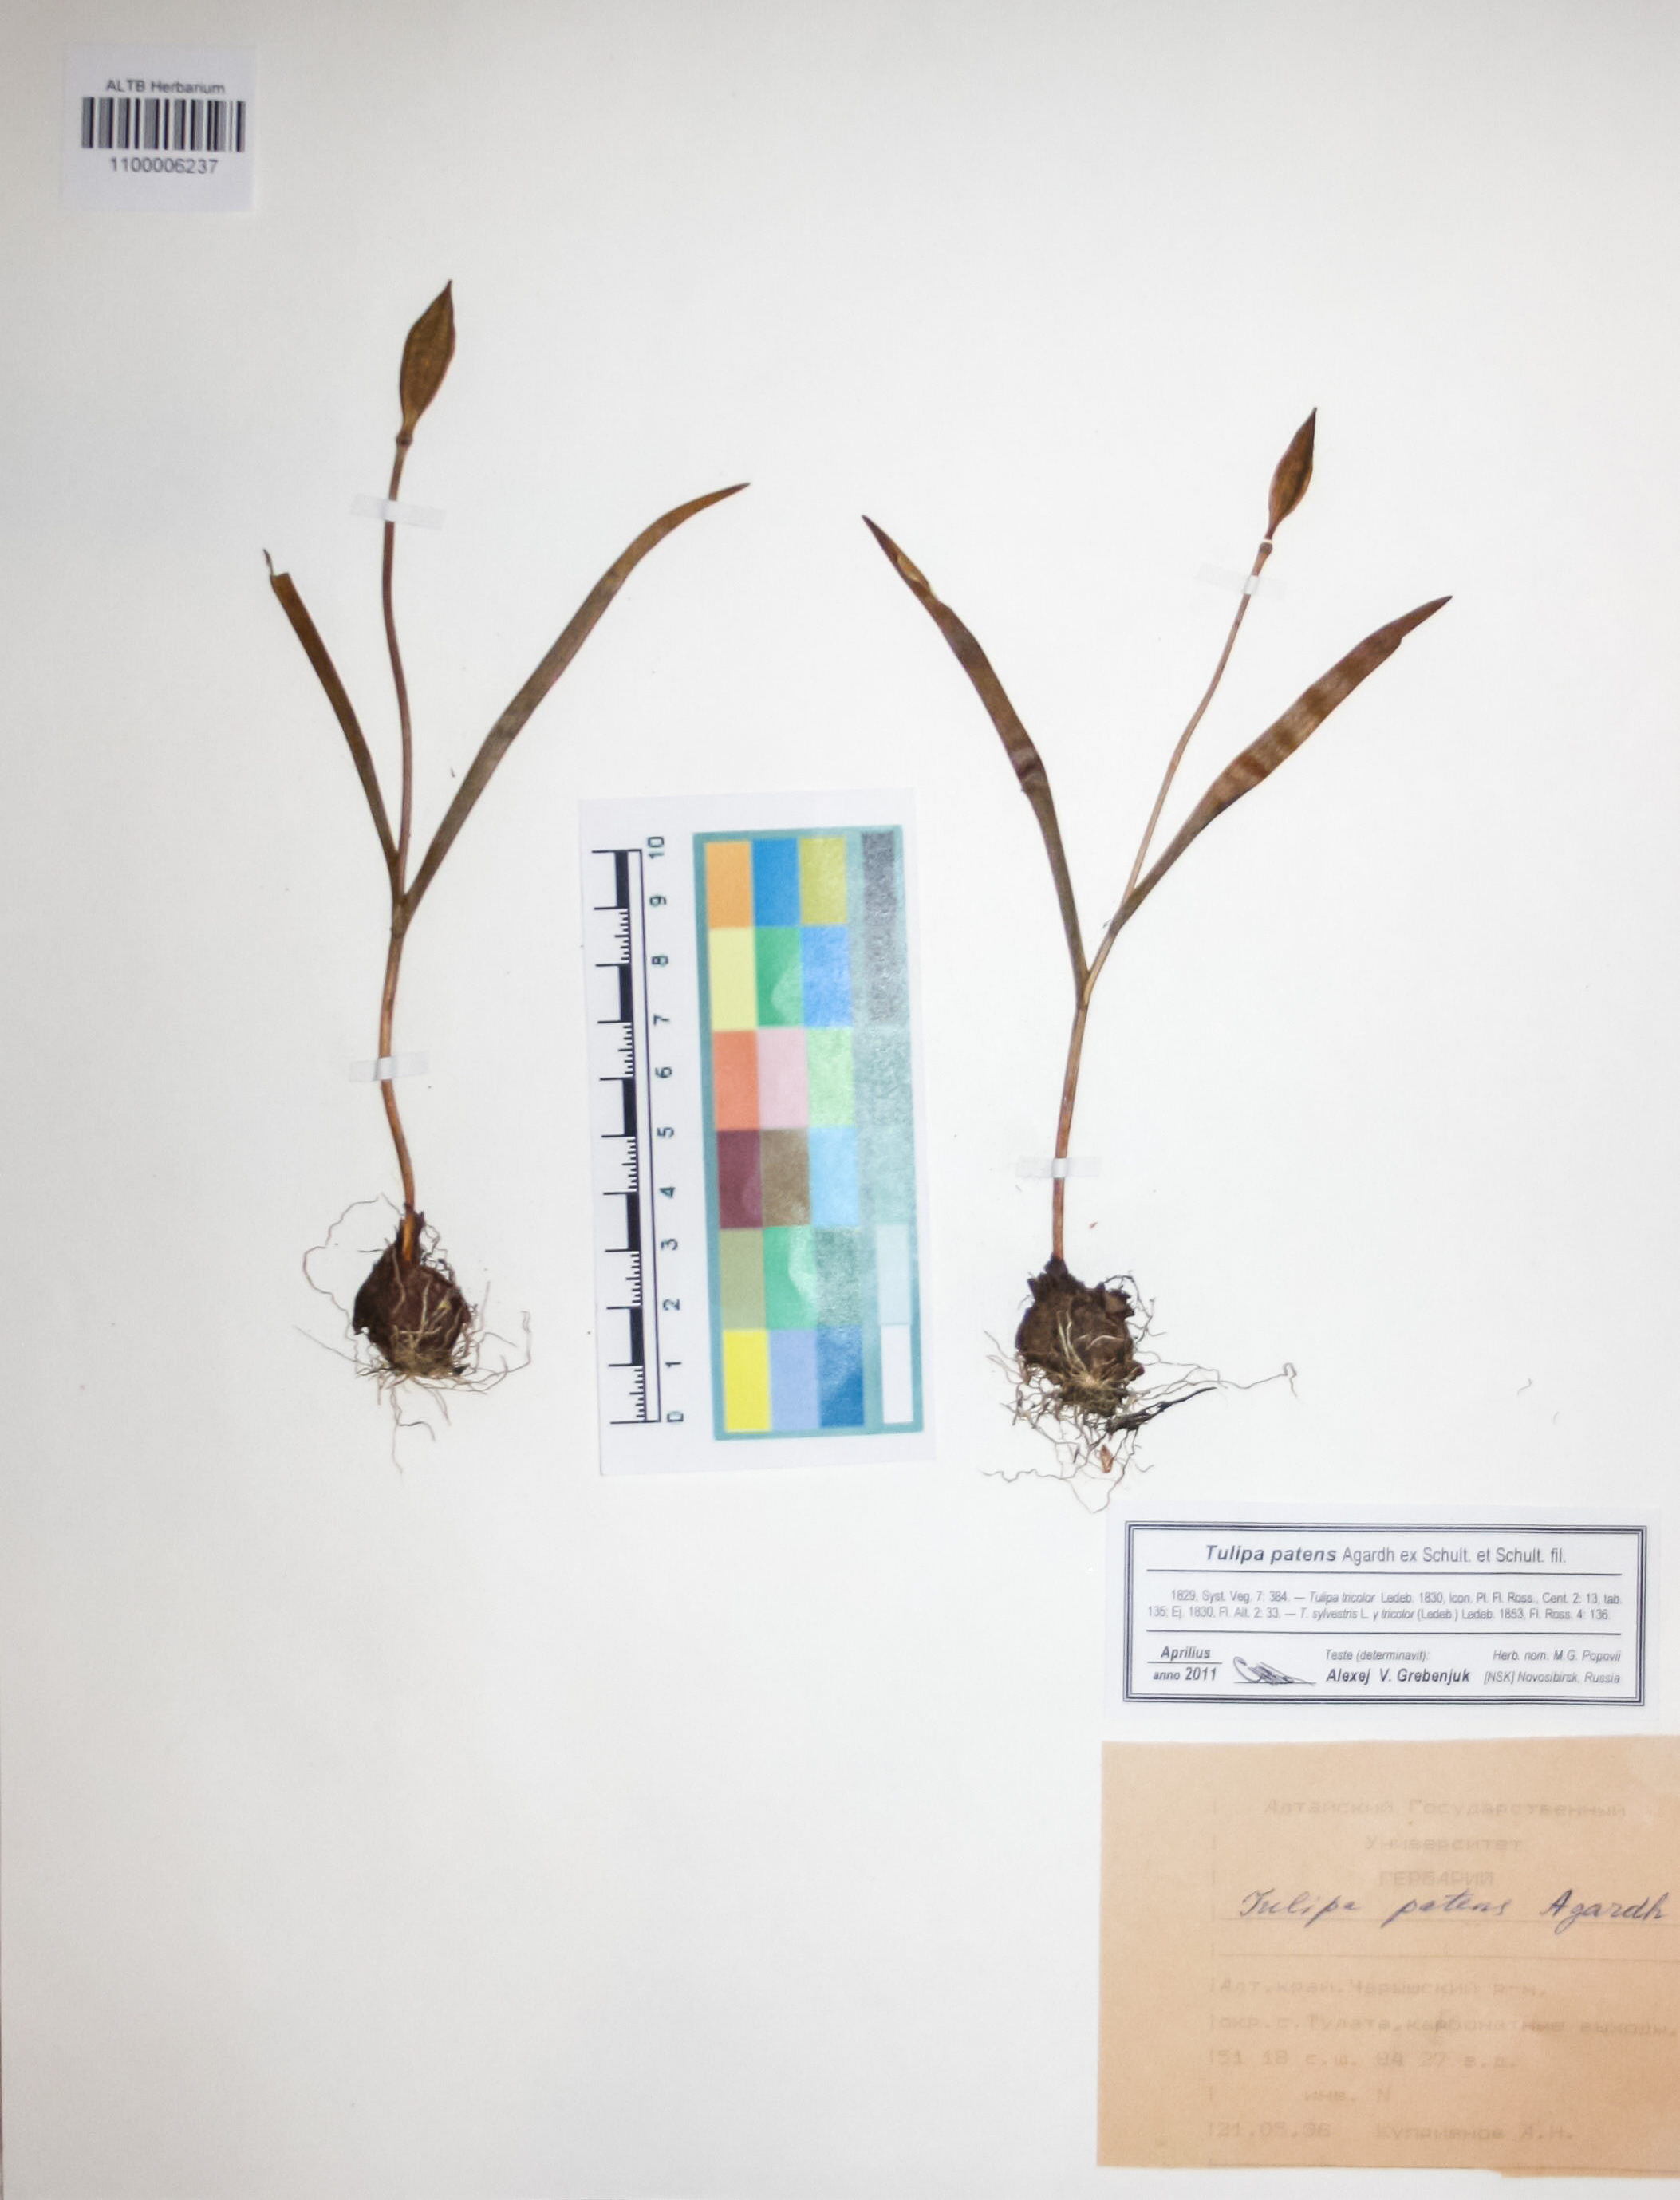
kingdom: Plantae
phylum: Tracheophyta
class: Liliopsida
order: Liliales
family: Liliaceae
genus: Tulipa
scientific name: Tulipa patens
